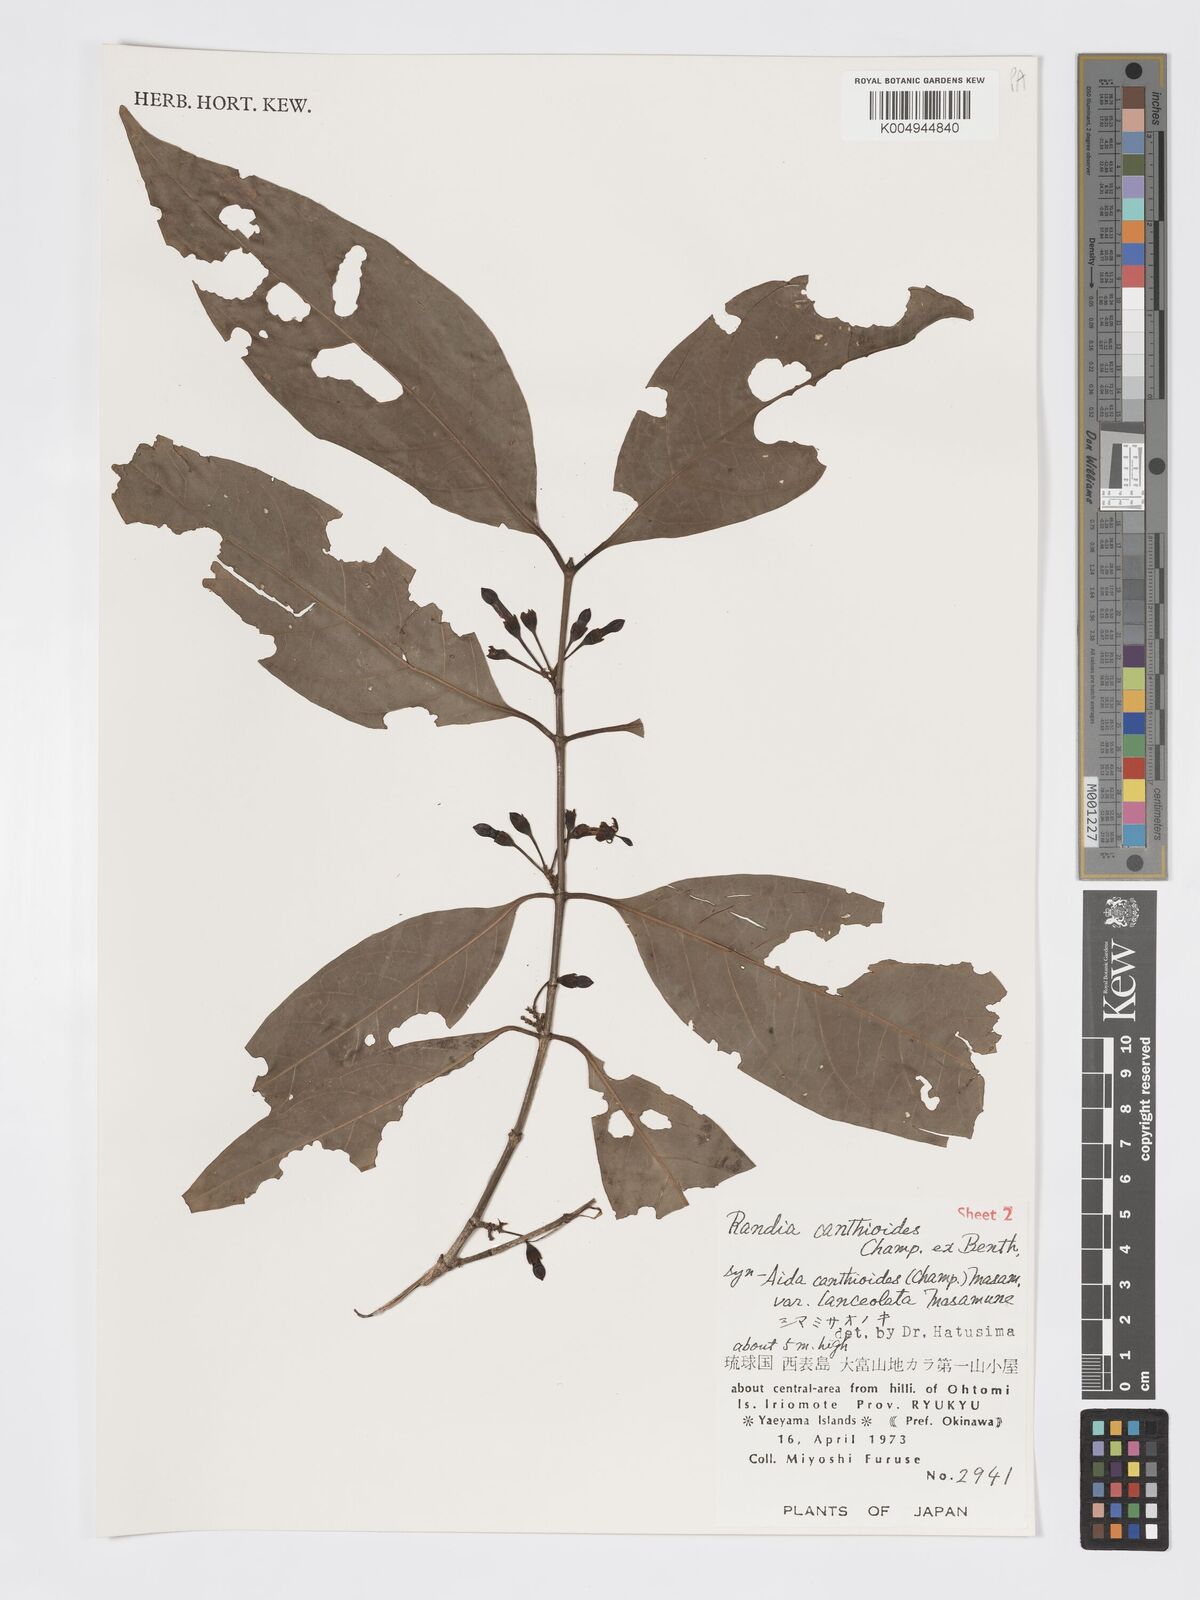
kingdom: Plantae
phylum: Tracheophyta
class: Magnoliopsida
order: Gentianales
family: Rubiaceae
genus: Aidia
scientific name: Aidia canthioides
